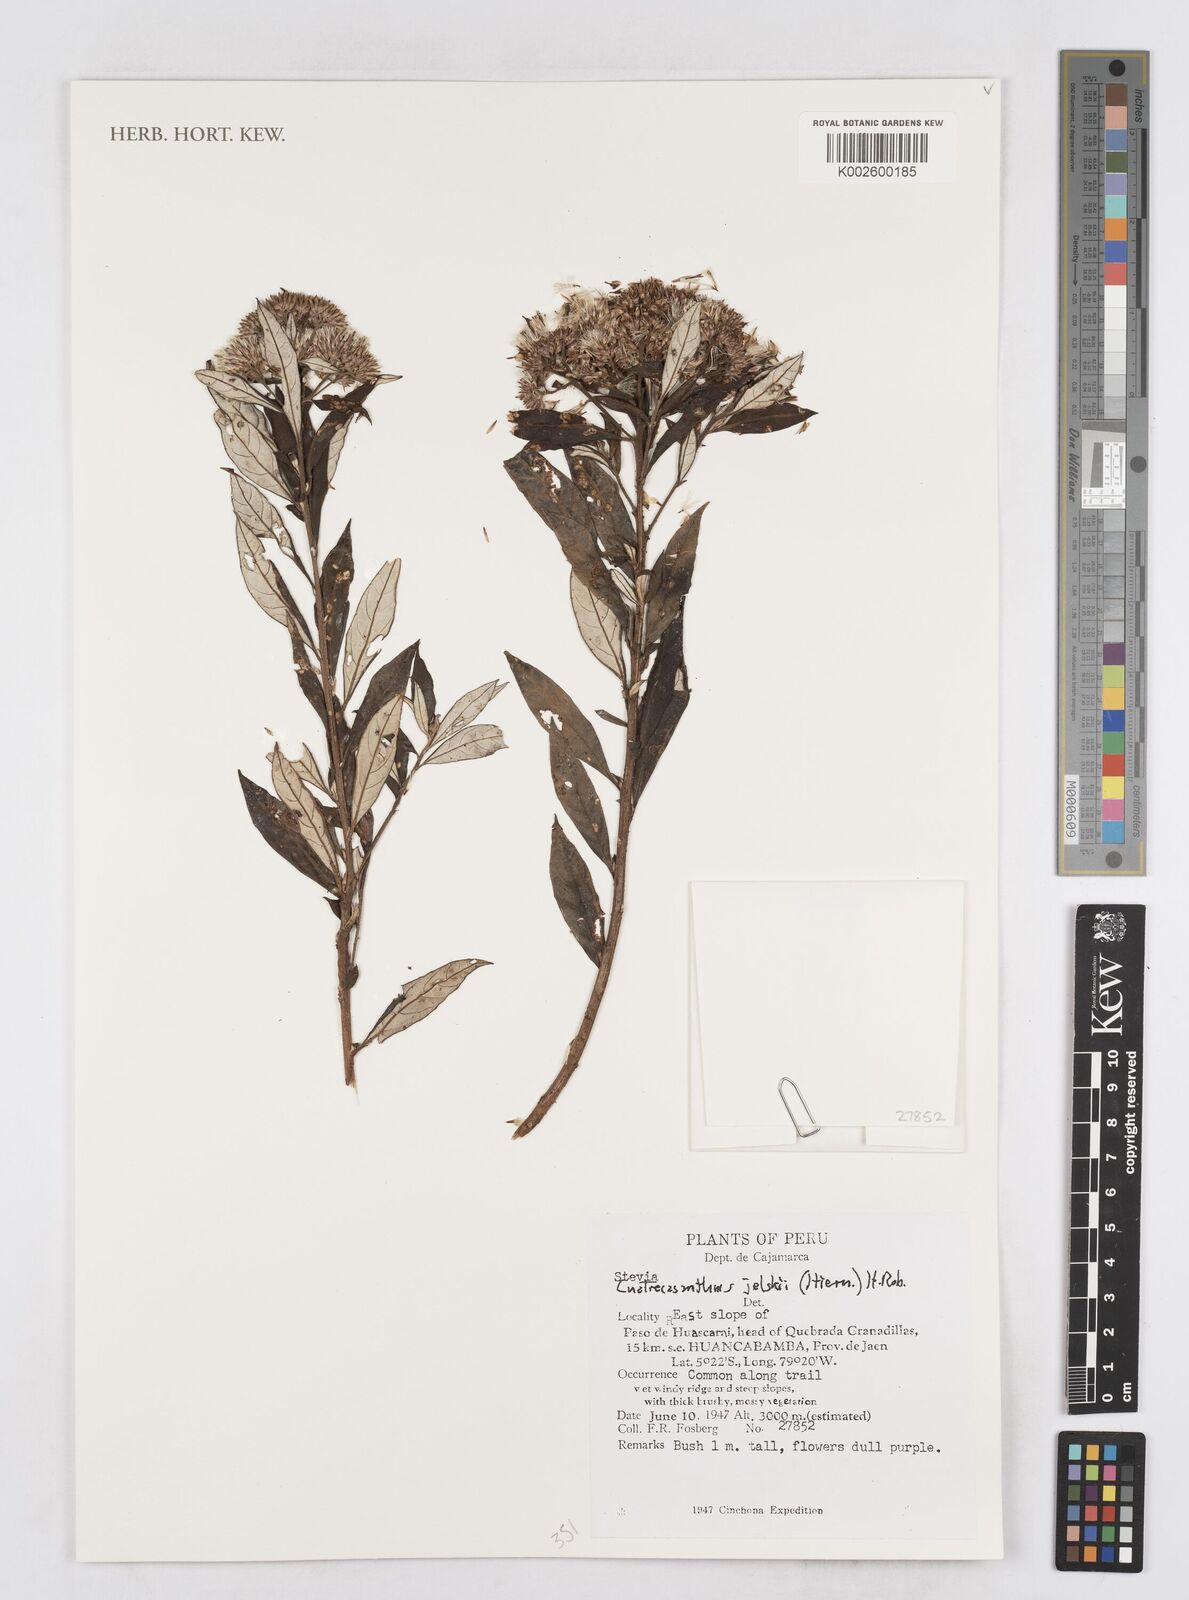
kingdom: Plantae
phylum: Tracheophyta
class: Magnoliopsida
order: Asterales
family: Asteraceae
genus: Cuatrecasanthus
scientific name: Cuatrecasanthus jelskii
